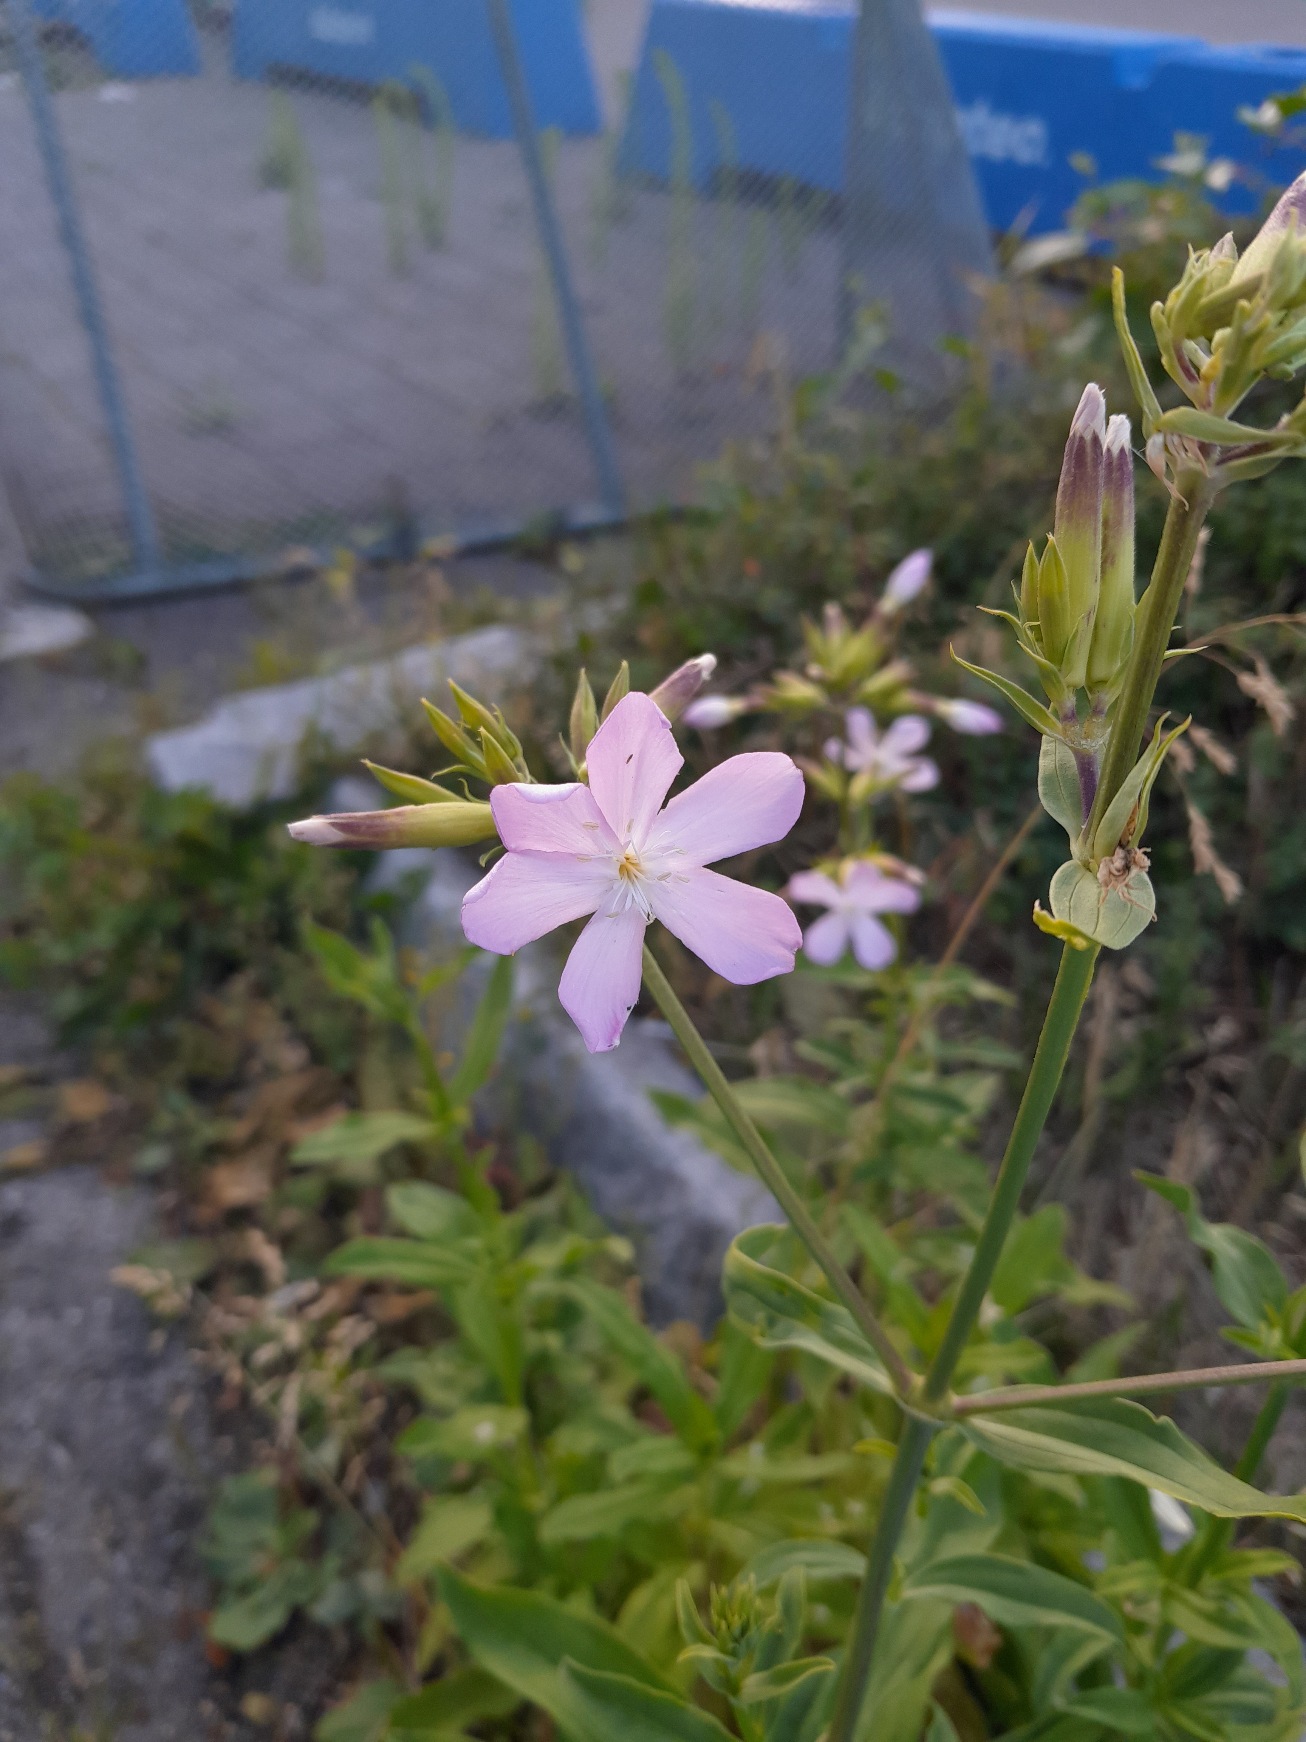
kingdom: Plantae
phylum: Tracheophyta
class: Magnoliopsida
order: Caryophyllales
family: Caryophyllaceae
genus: Saponaria
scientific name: Saponaria officinalis
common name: Sæbeurt
